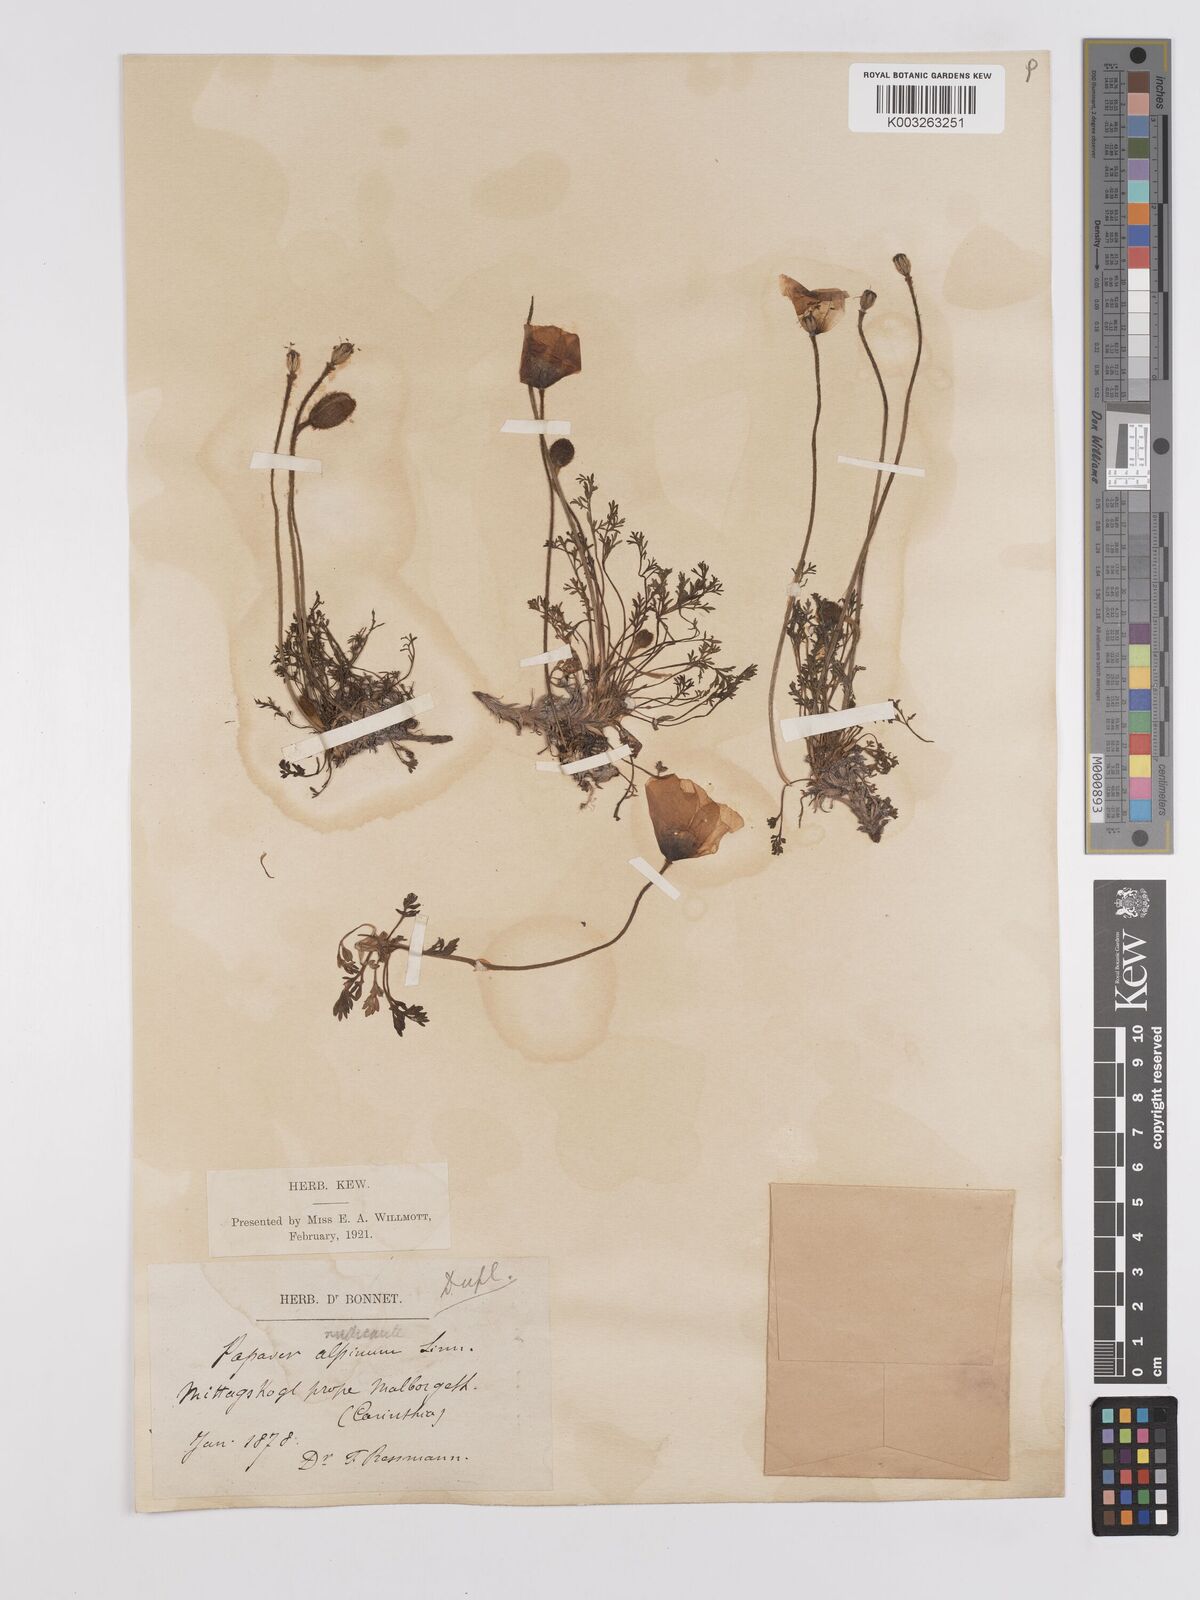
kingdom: Plantae
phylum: Tracheophyta
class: Magnoliopsida
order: Ranunculales
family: Papaveraceae
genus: Papaver
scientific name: Papaver radicatum
